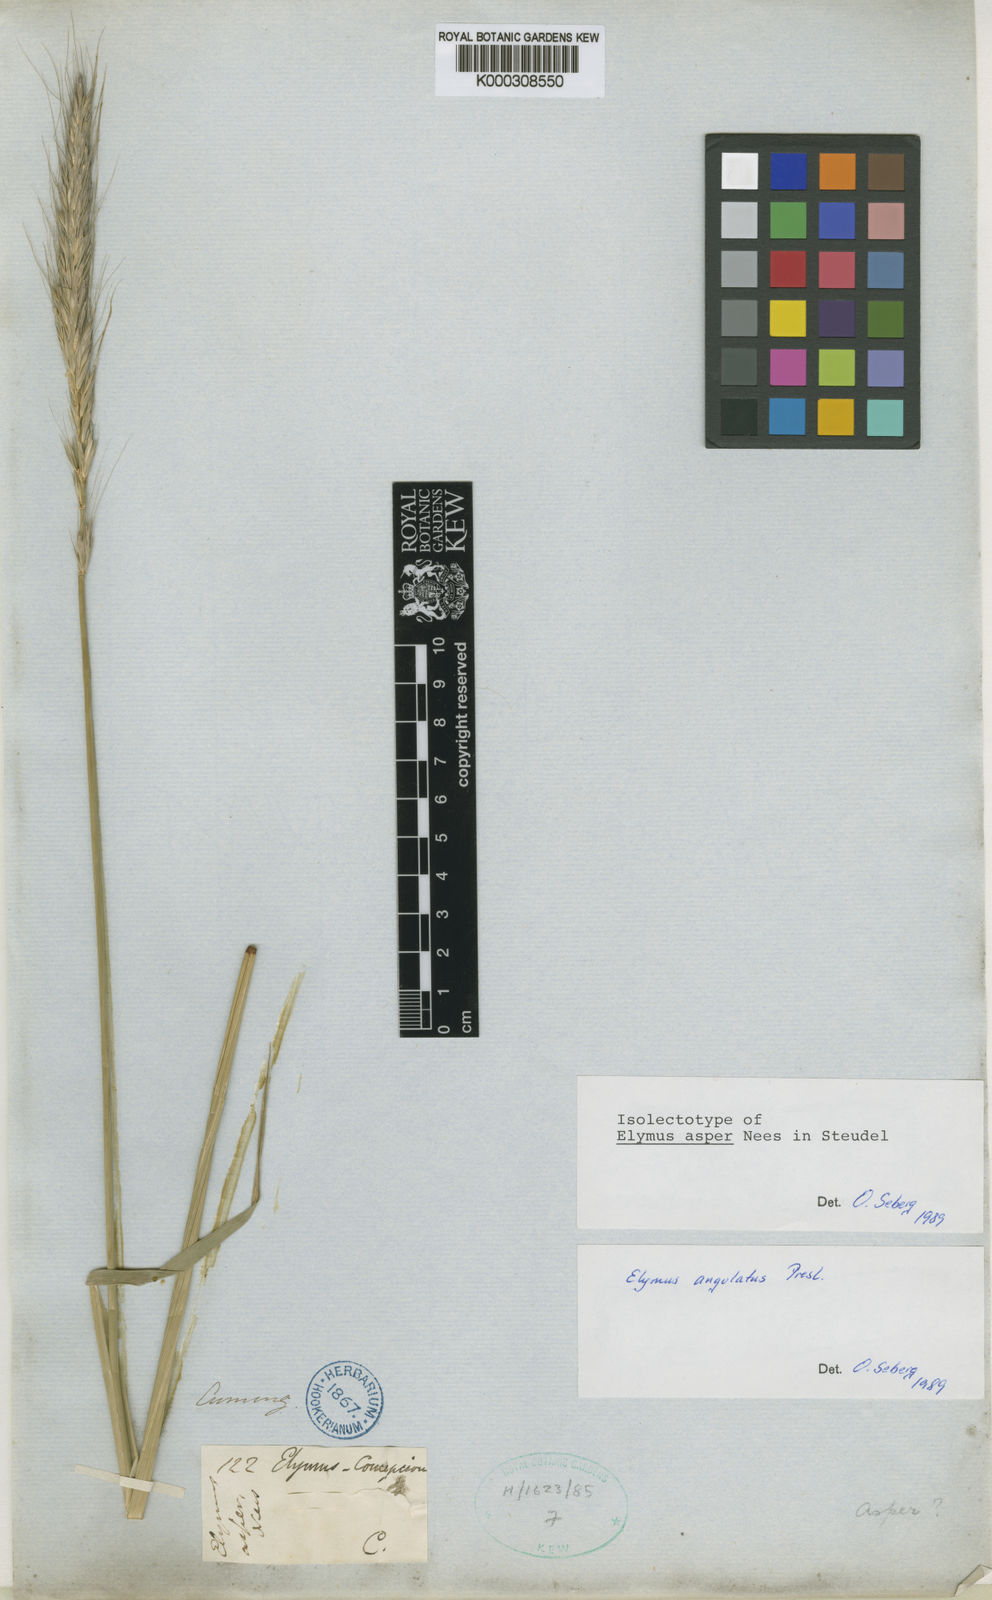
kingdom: Plantae
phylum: Tracheophyta
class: Liliopsida
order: Poales
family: Poaceae
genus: Elymus
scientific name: Elymus angulatus
